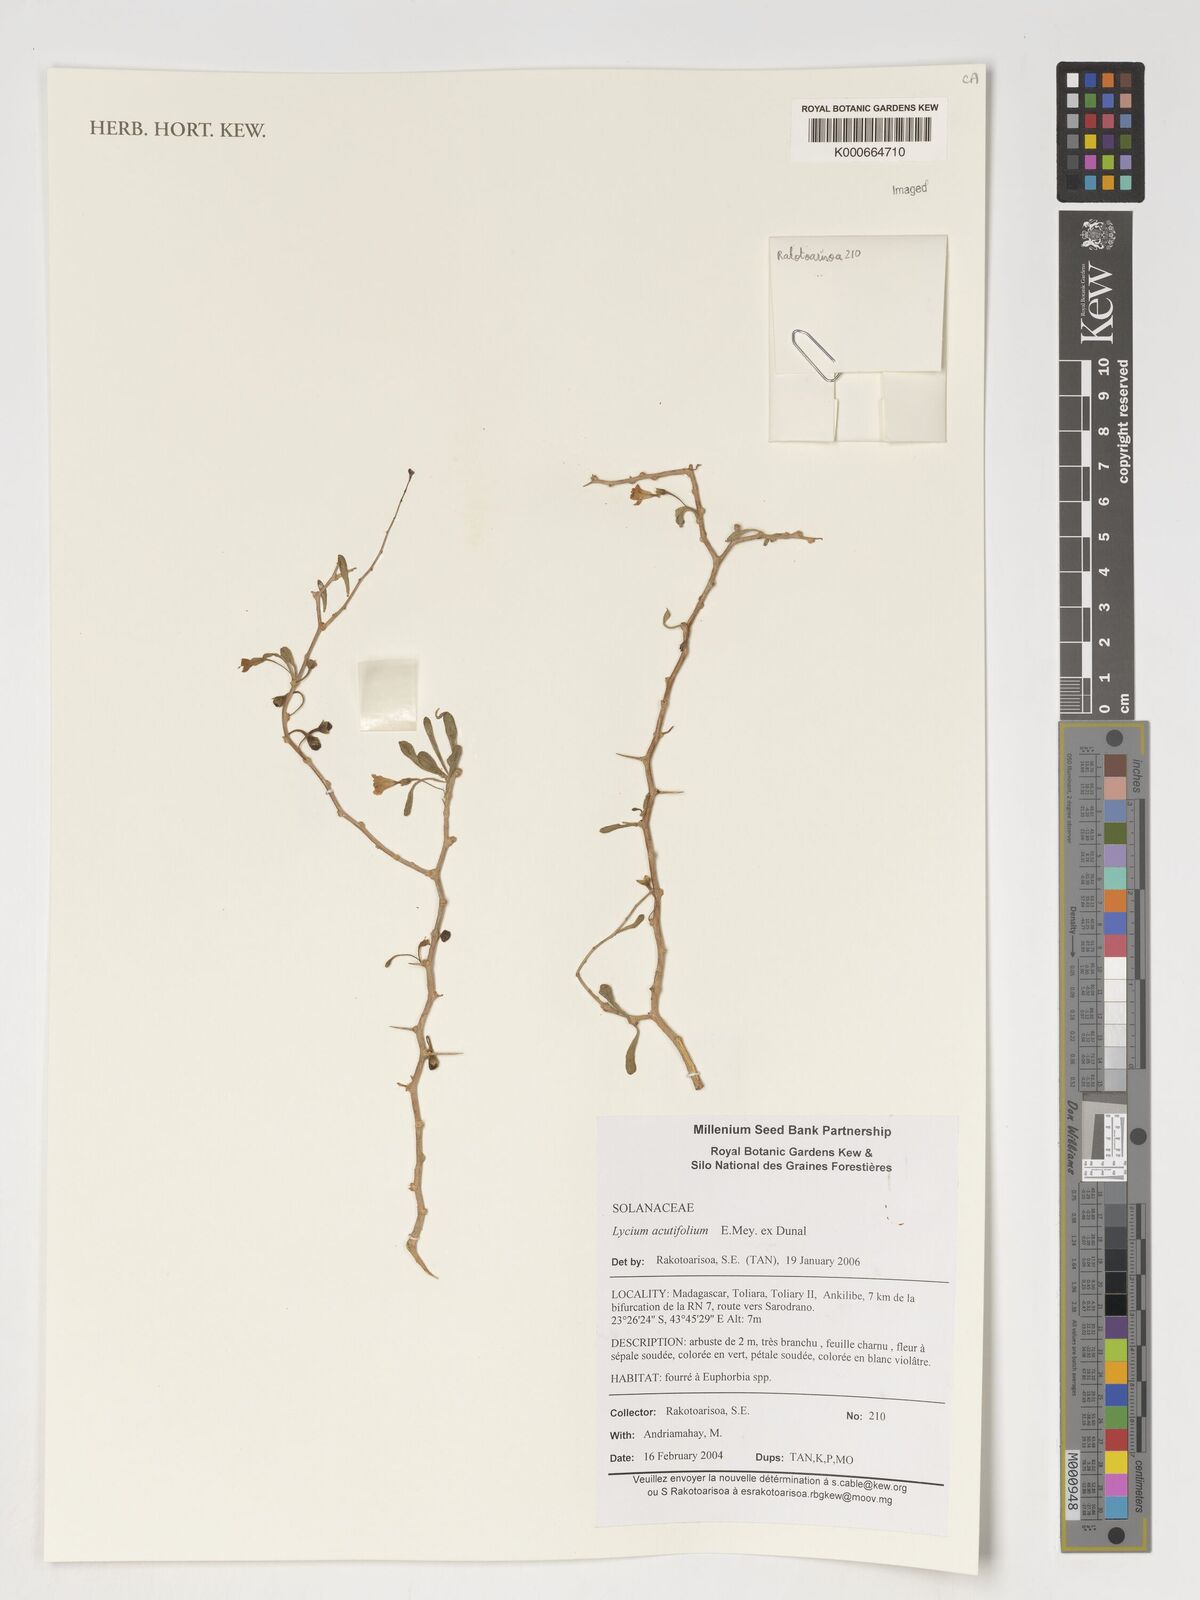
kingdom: Plantae
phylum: Tracheophyta
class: Magnoliopsida
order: Gentianales
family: Rubiaceae
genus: Coptosperma
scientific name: Coptosperma
